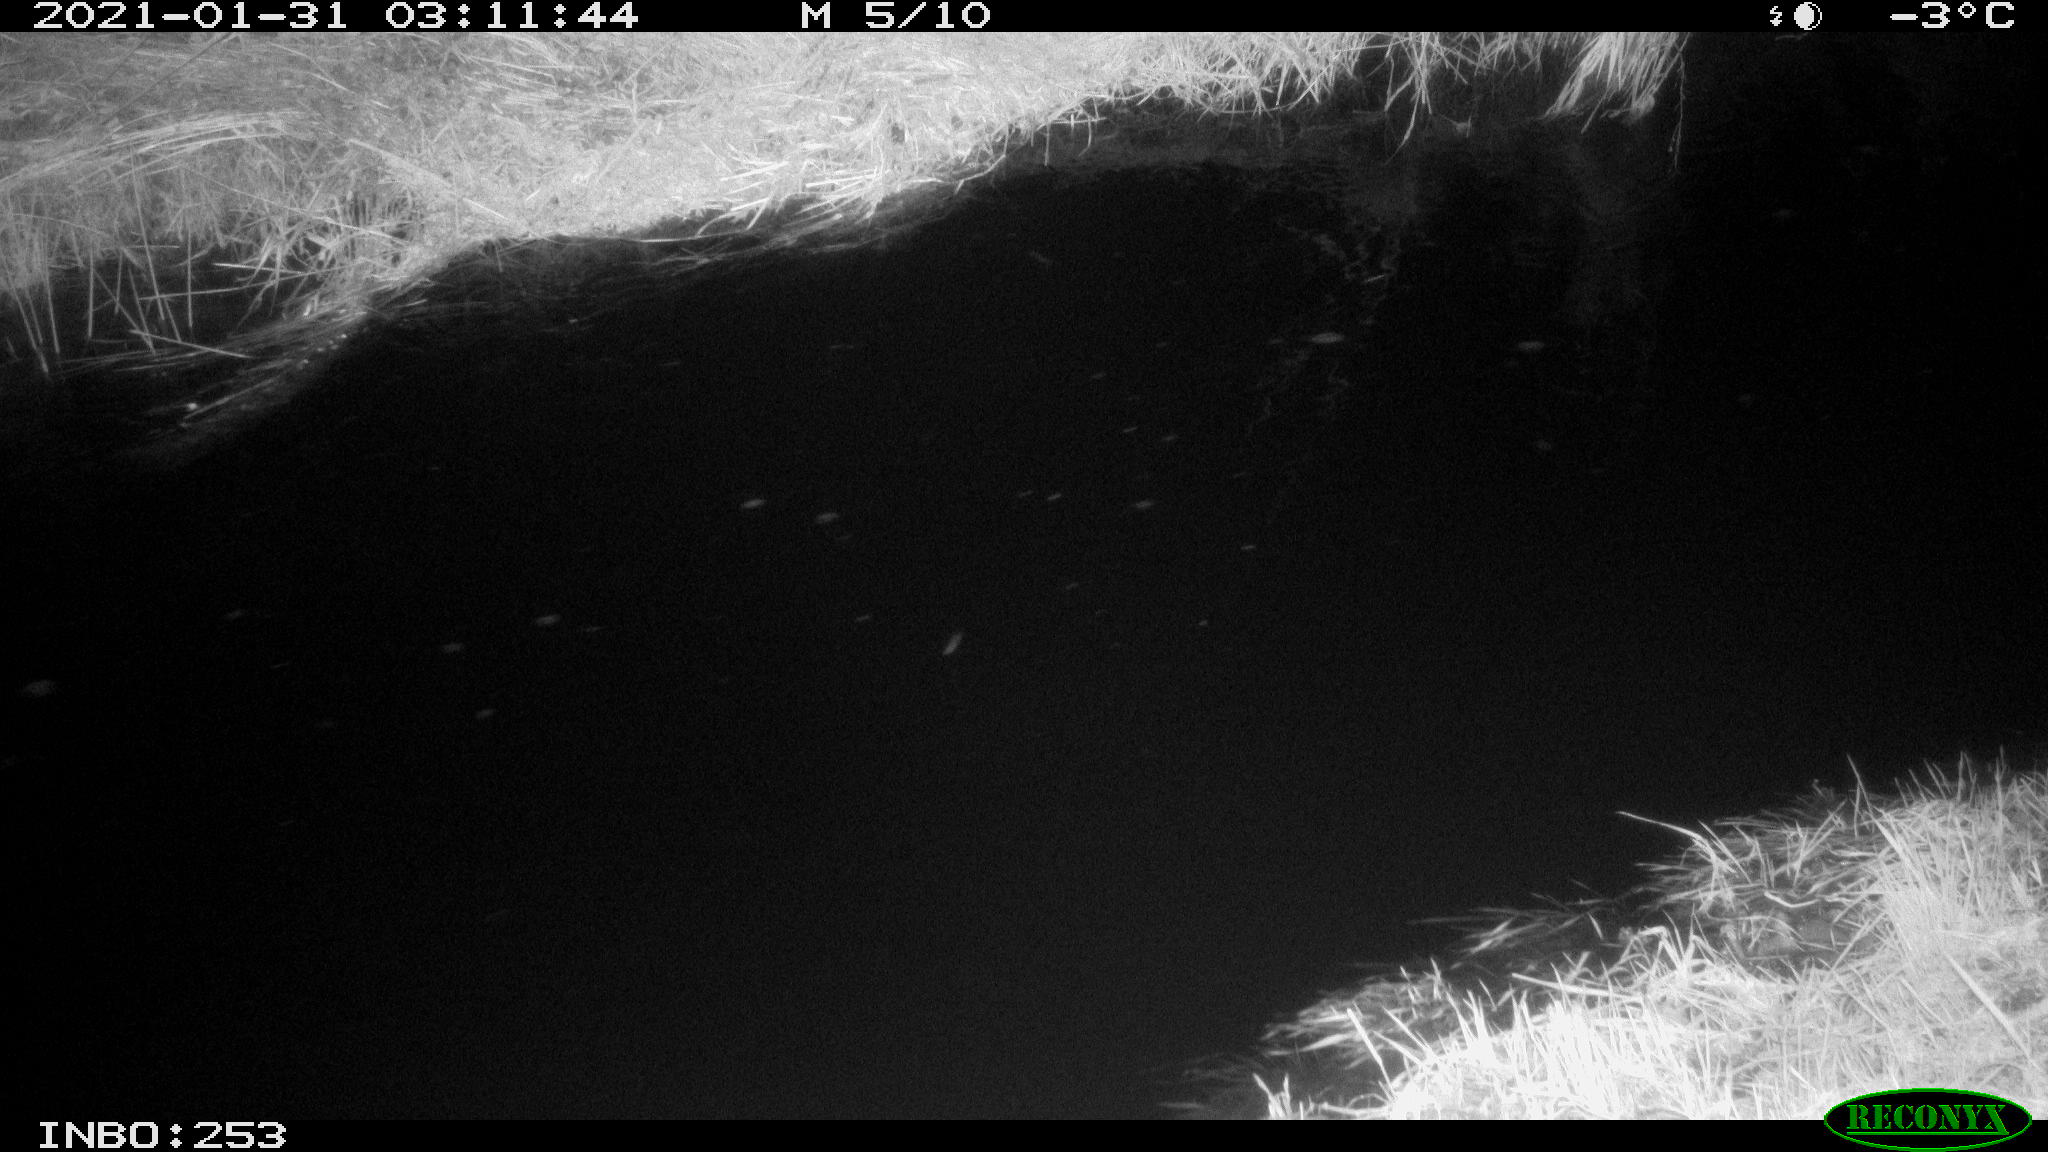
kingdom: Animalia
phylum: Chordata
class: Aves
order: Anseriformes
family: Anatidae
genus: Anas
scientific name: Anas platyrhynchos
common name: Mallard
